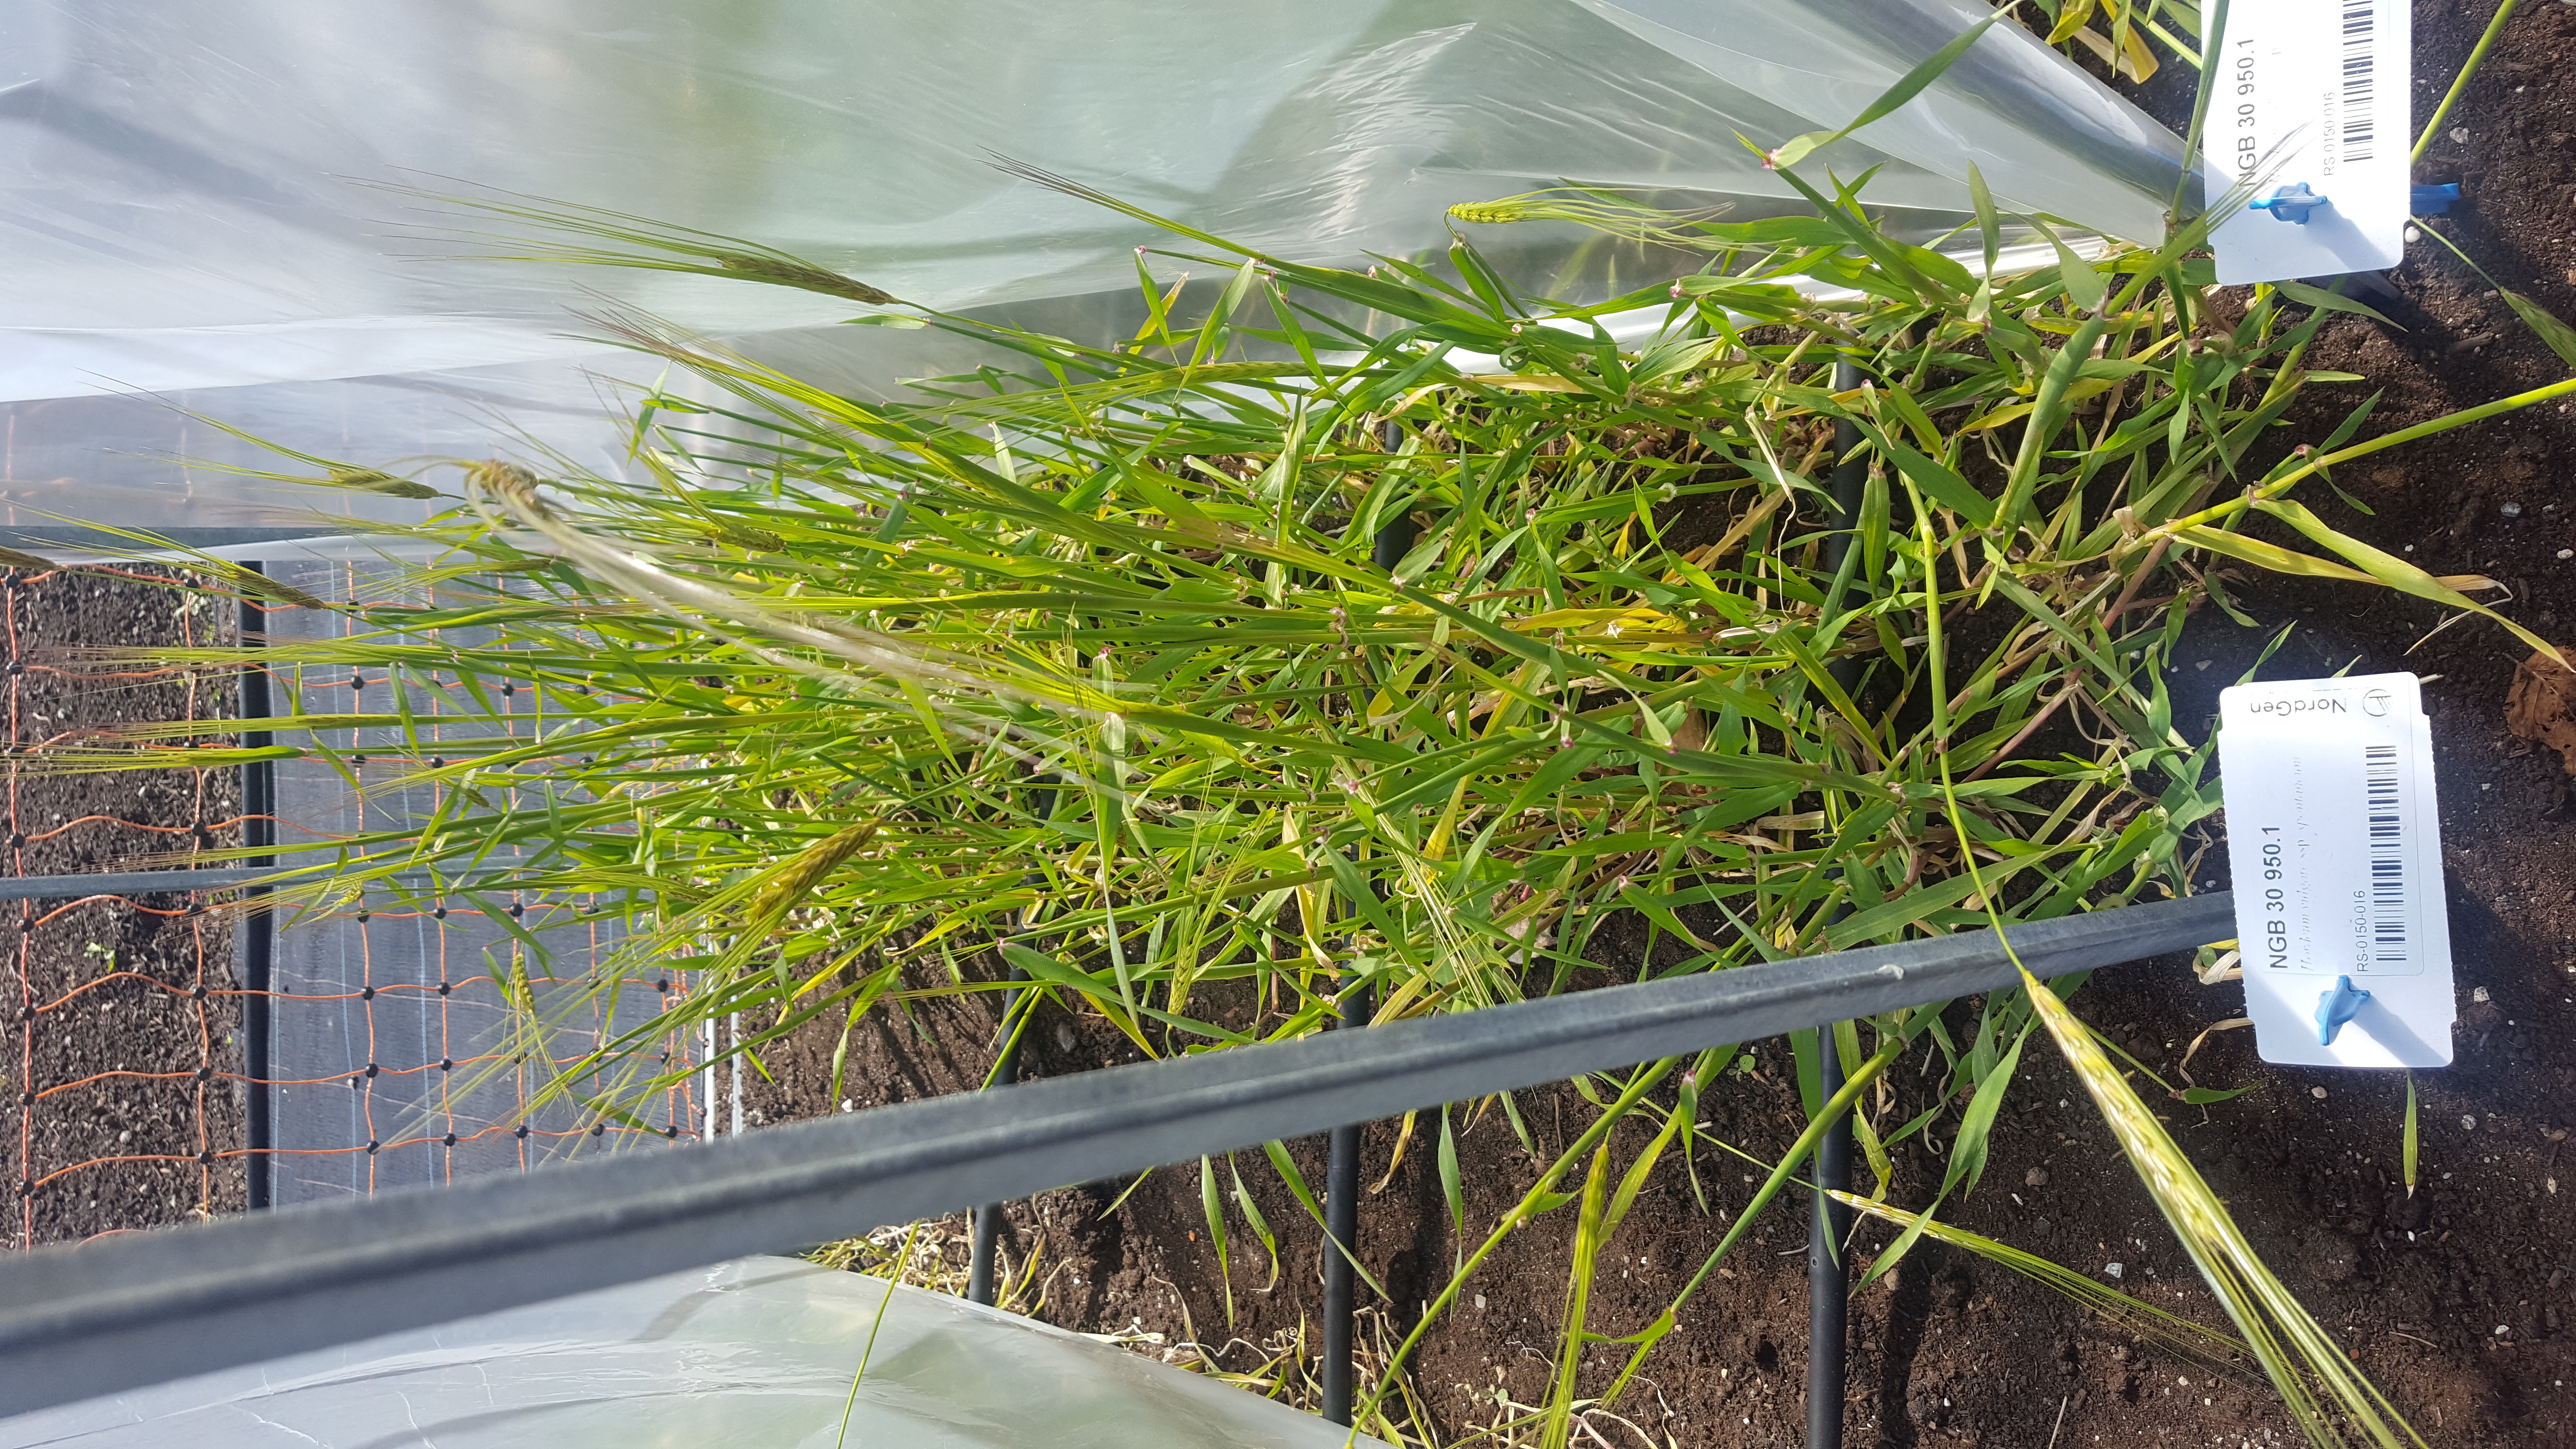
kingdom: Plantae
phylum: Tracheophyta
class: Liliopsida
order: Poales
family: Poaceae
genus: Hordeum
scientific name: Hordeum spontaneum
